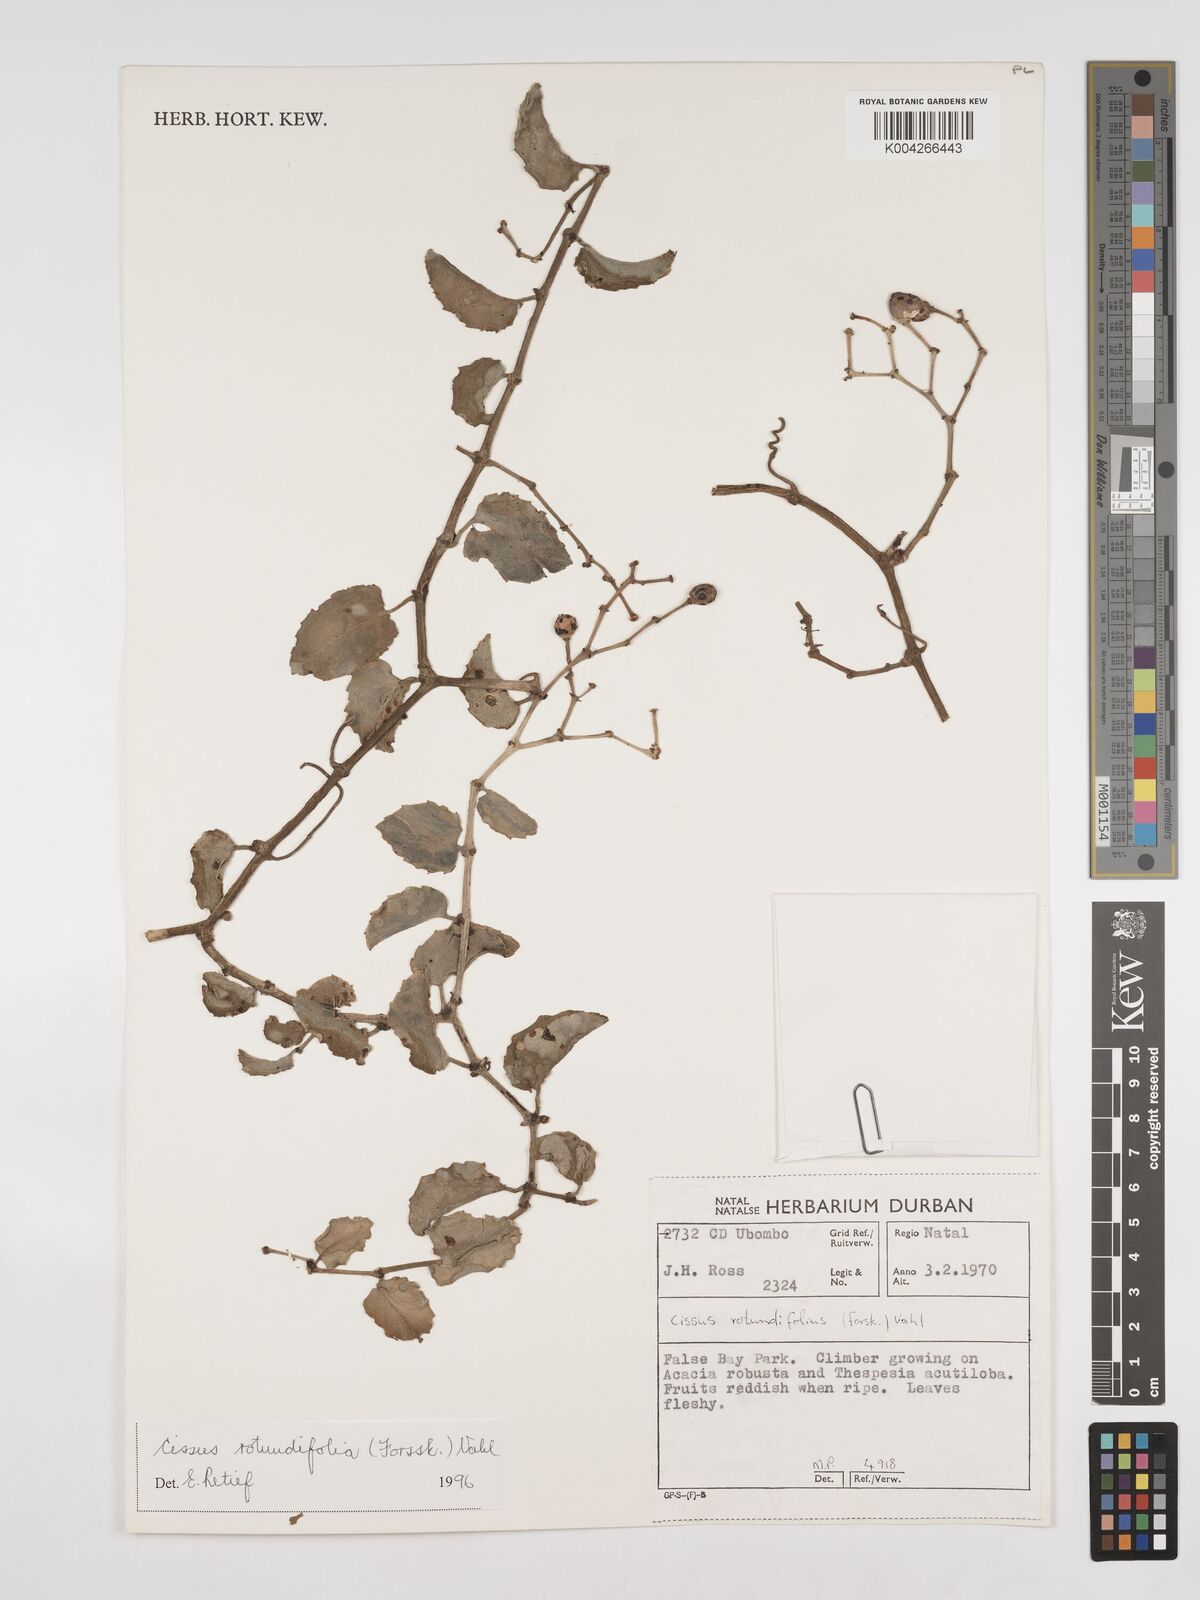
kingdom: Plantae
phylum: Tracheophyta
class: Magnoliopsida
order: Vitales
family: Vitaceae
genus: Cissus
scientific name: Cissus
